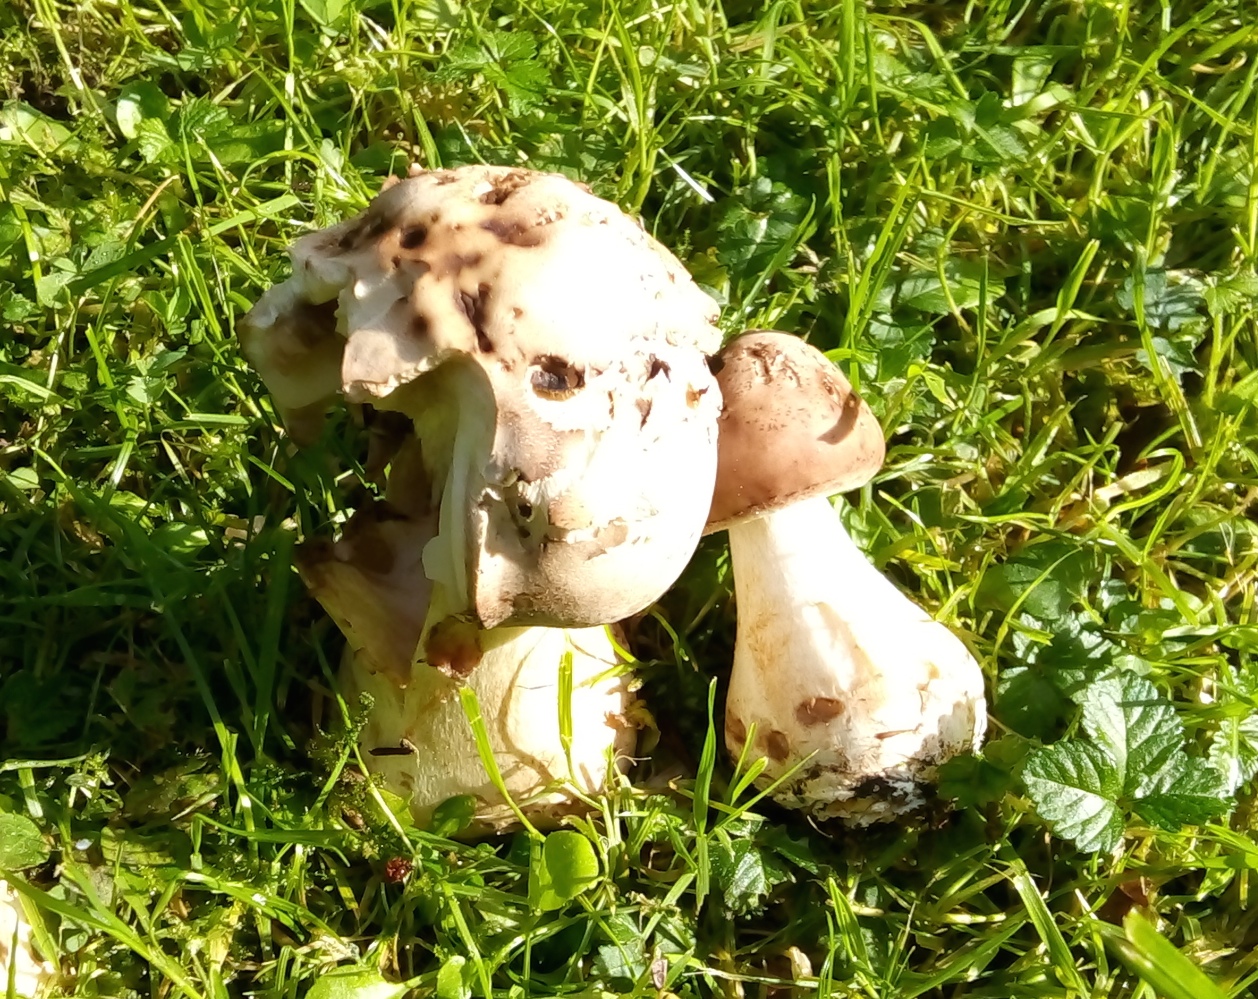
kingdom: Fungi
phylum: Basidiomycota
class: Agaricomycetes
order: Agaricales
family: Agaricaceae
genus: Chlorophyllum
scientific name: Chlorophyllum
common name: rabarberhat
